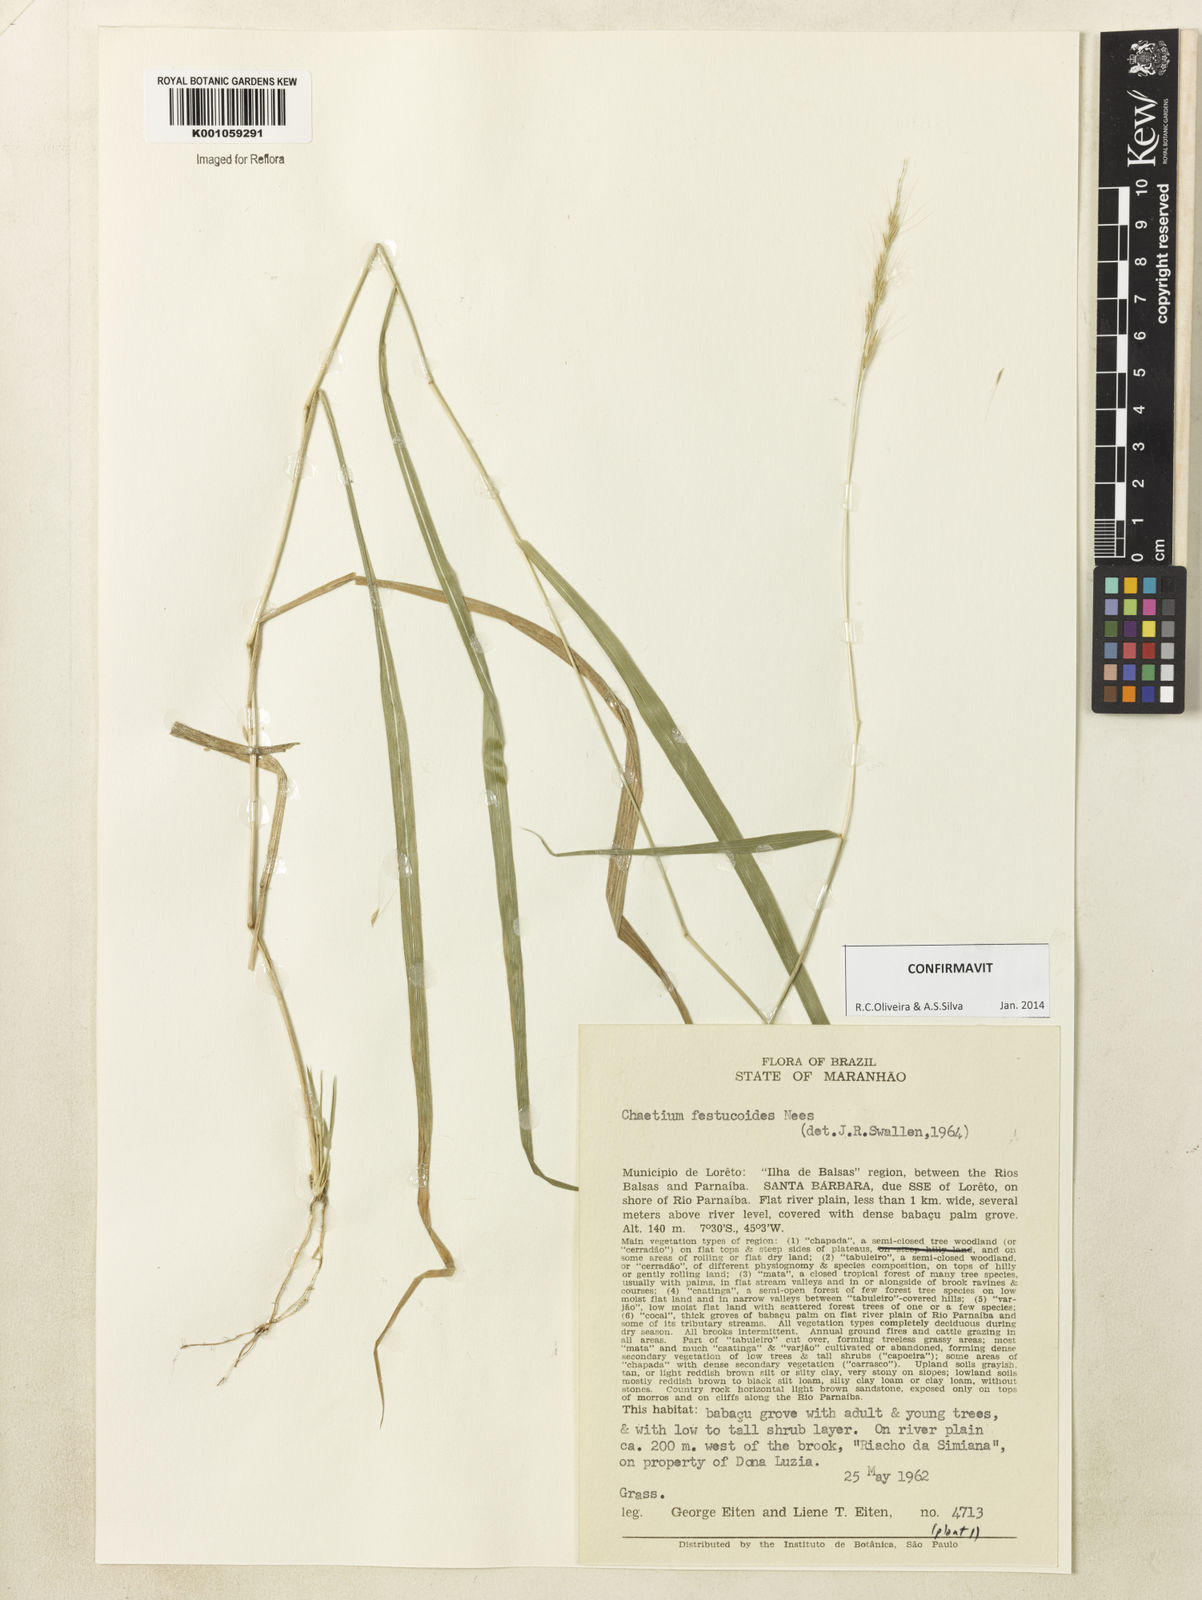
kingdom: Plantae
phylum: Tracheophyta
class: Liliopsida
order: Poales
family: Poaceae
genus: Chaetium
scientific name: Chaetium festucoides
